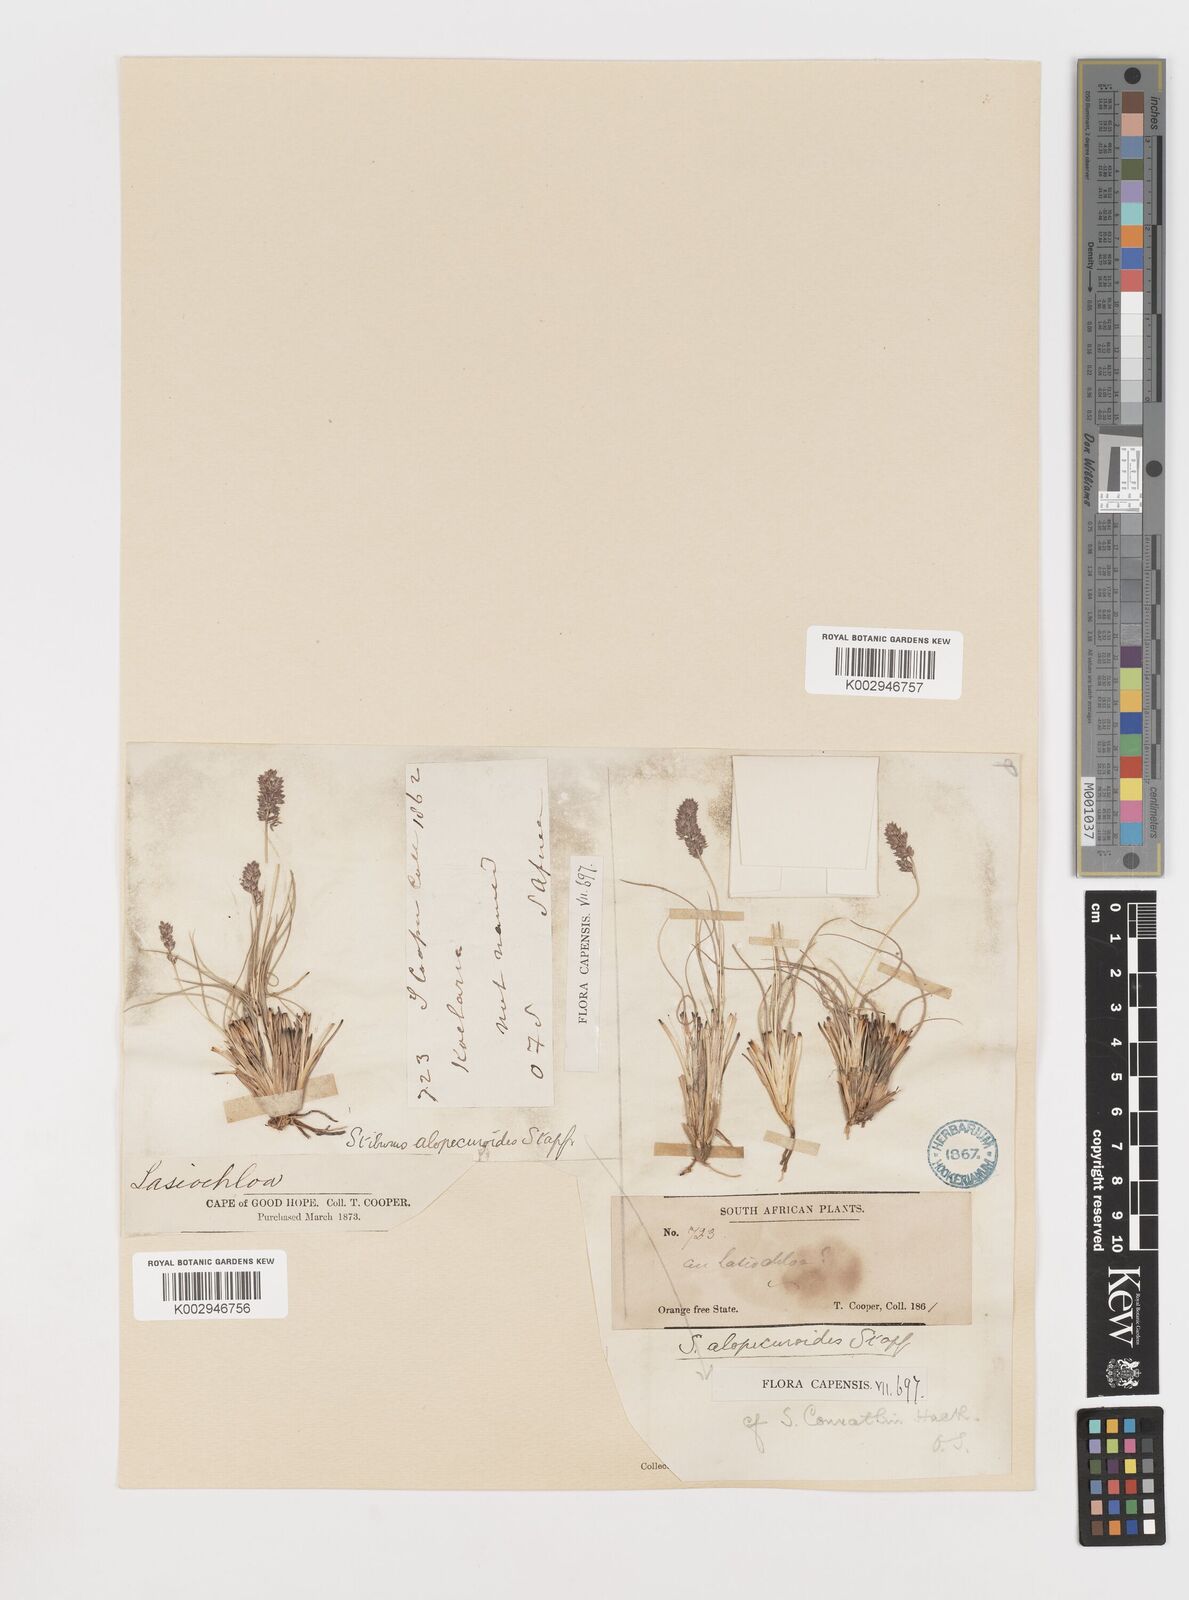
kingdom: Plantae
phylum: Tracheophyta
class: Liliopsida
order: Poales
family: Poaceae
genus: Stiburus
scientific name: Stiburus conrathii
